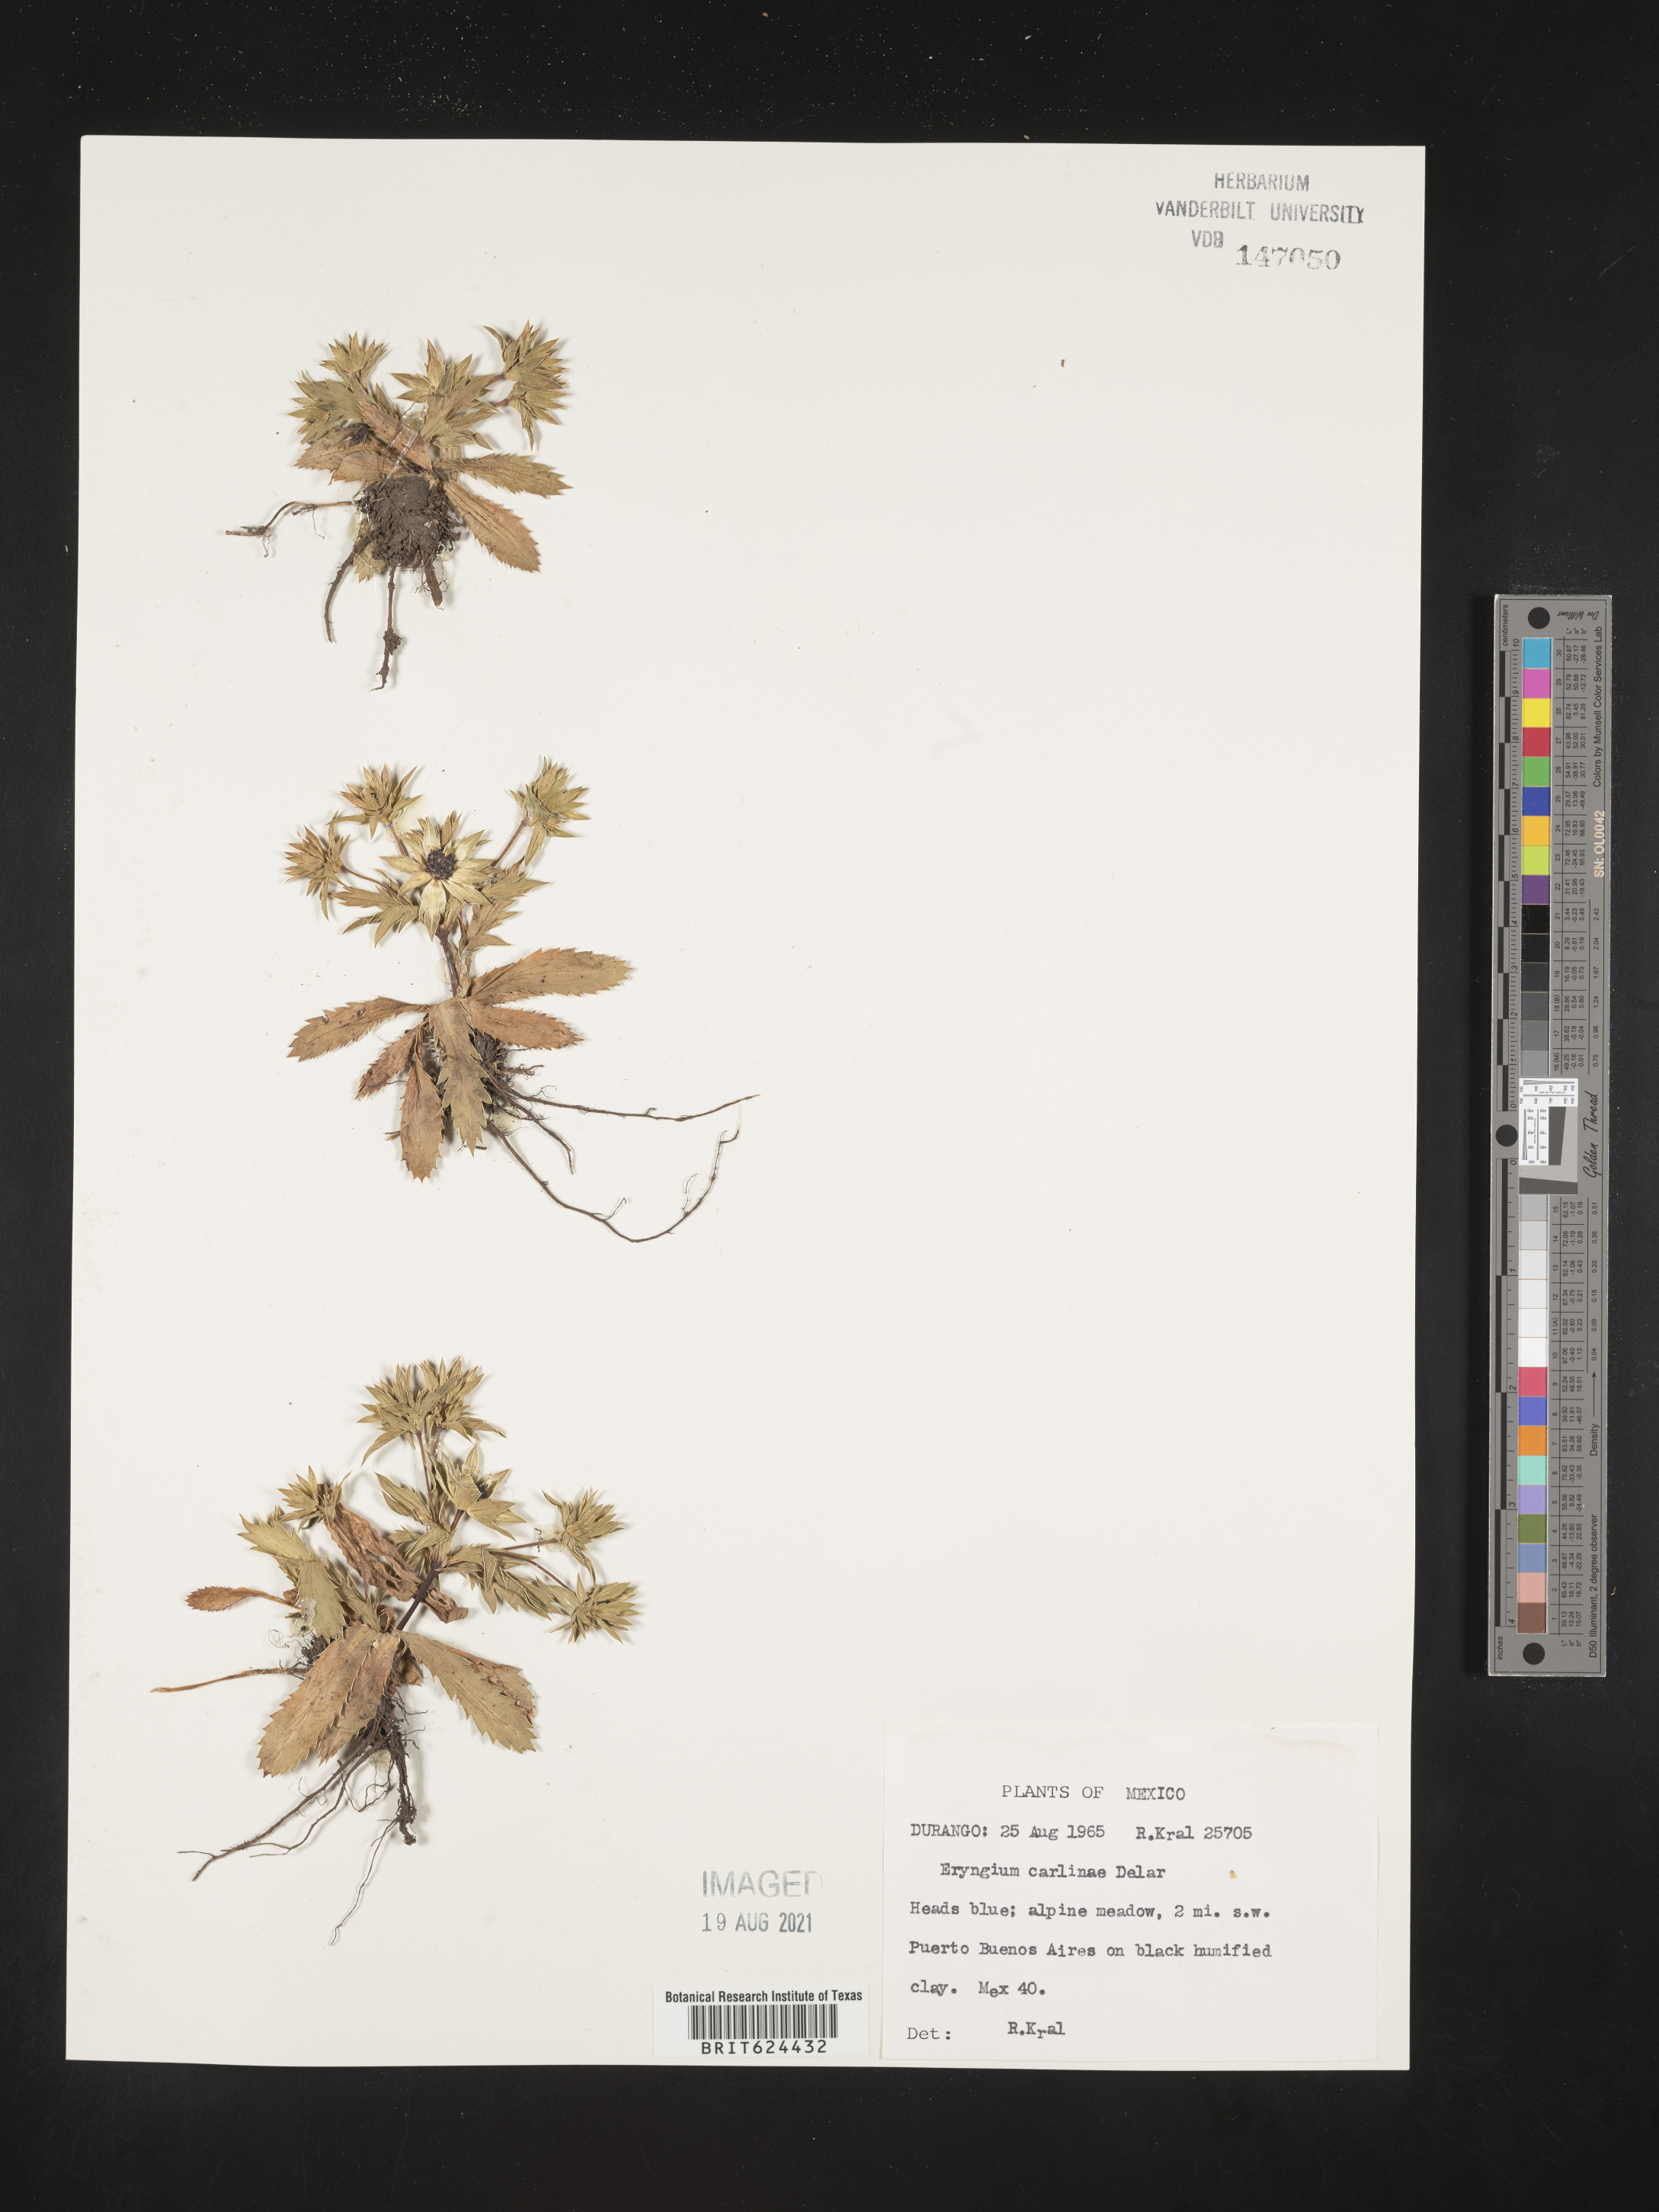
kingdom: Plantae
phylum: Tracheophyta
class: Magnoliopsida
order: Apiales
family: Apiaceae
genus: Eryngium
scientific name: Eryngium
